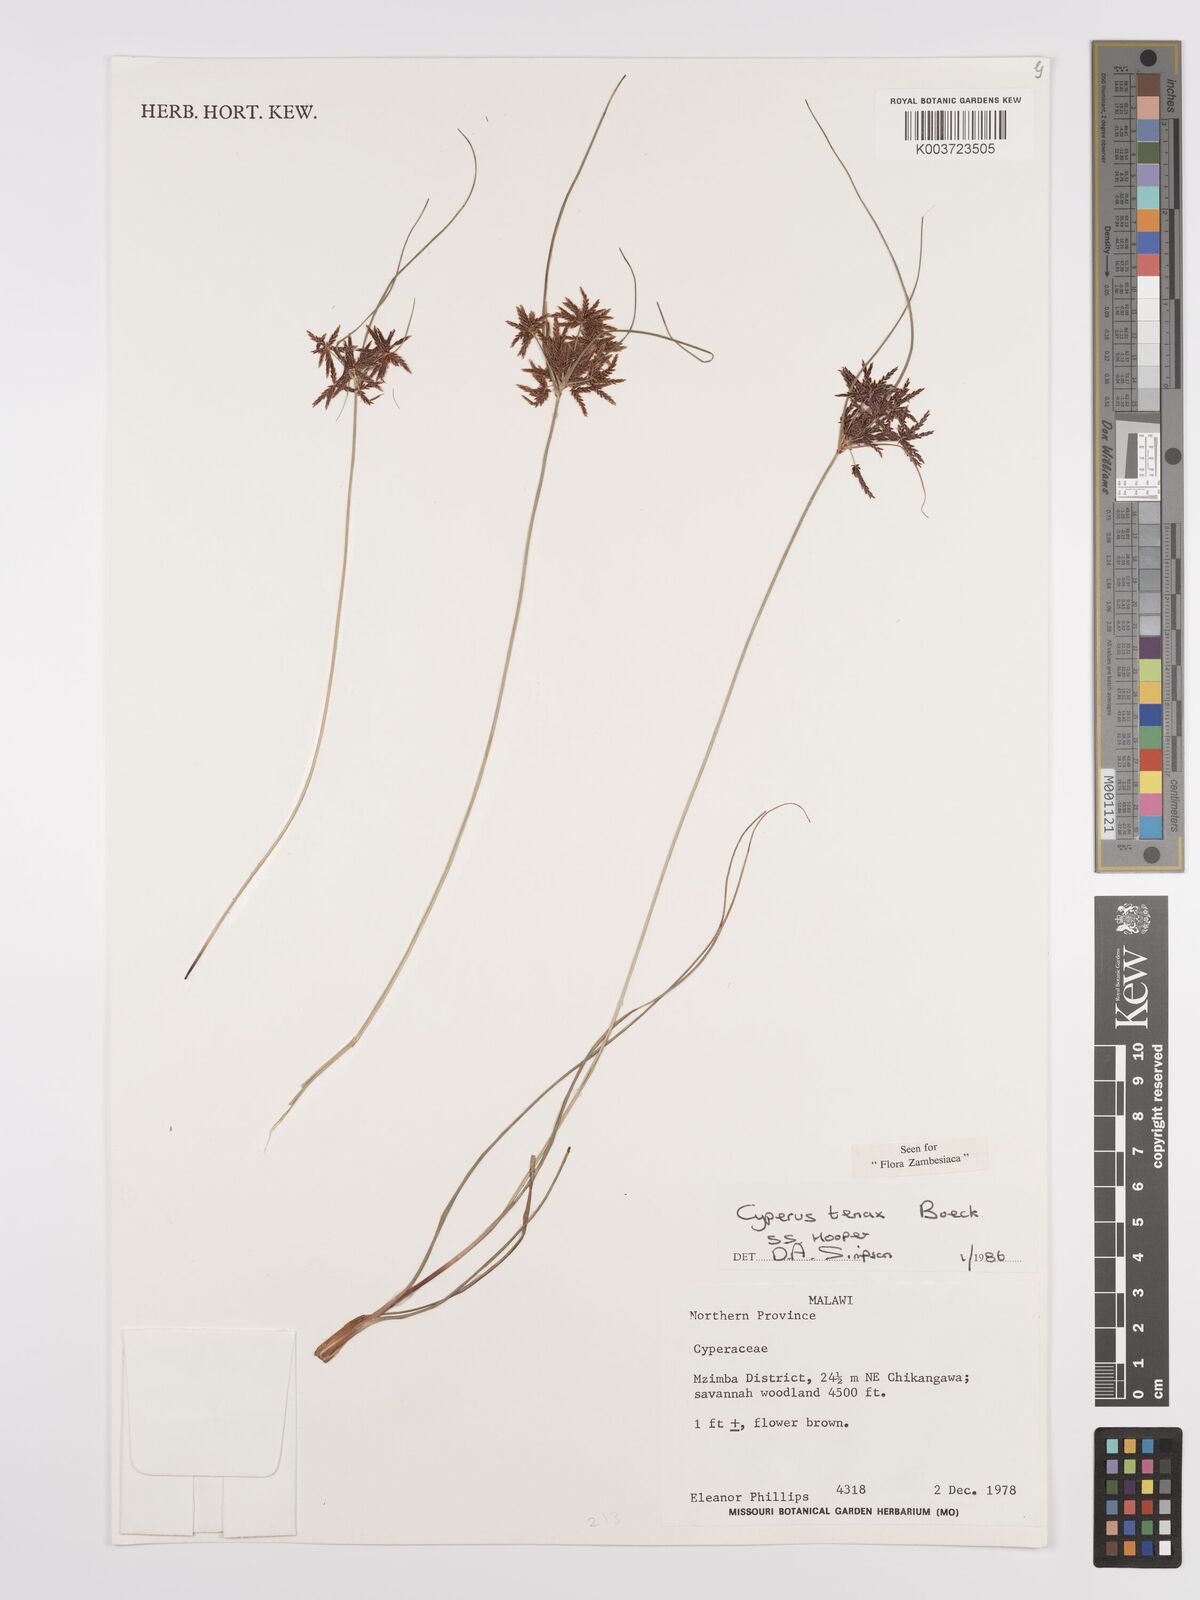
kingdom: Plantae
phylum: Tracheophyta
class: Liliopsida
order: Poales
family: Cyperaceae
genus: Cyperus
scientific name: Cyperus tenax
